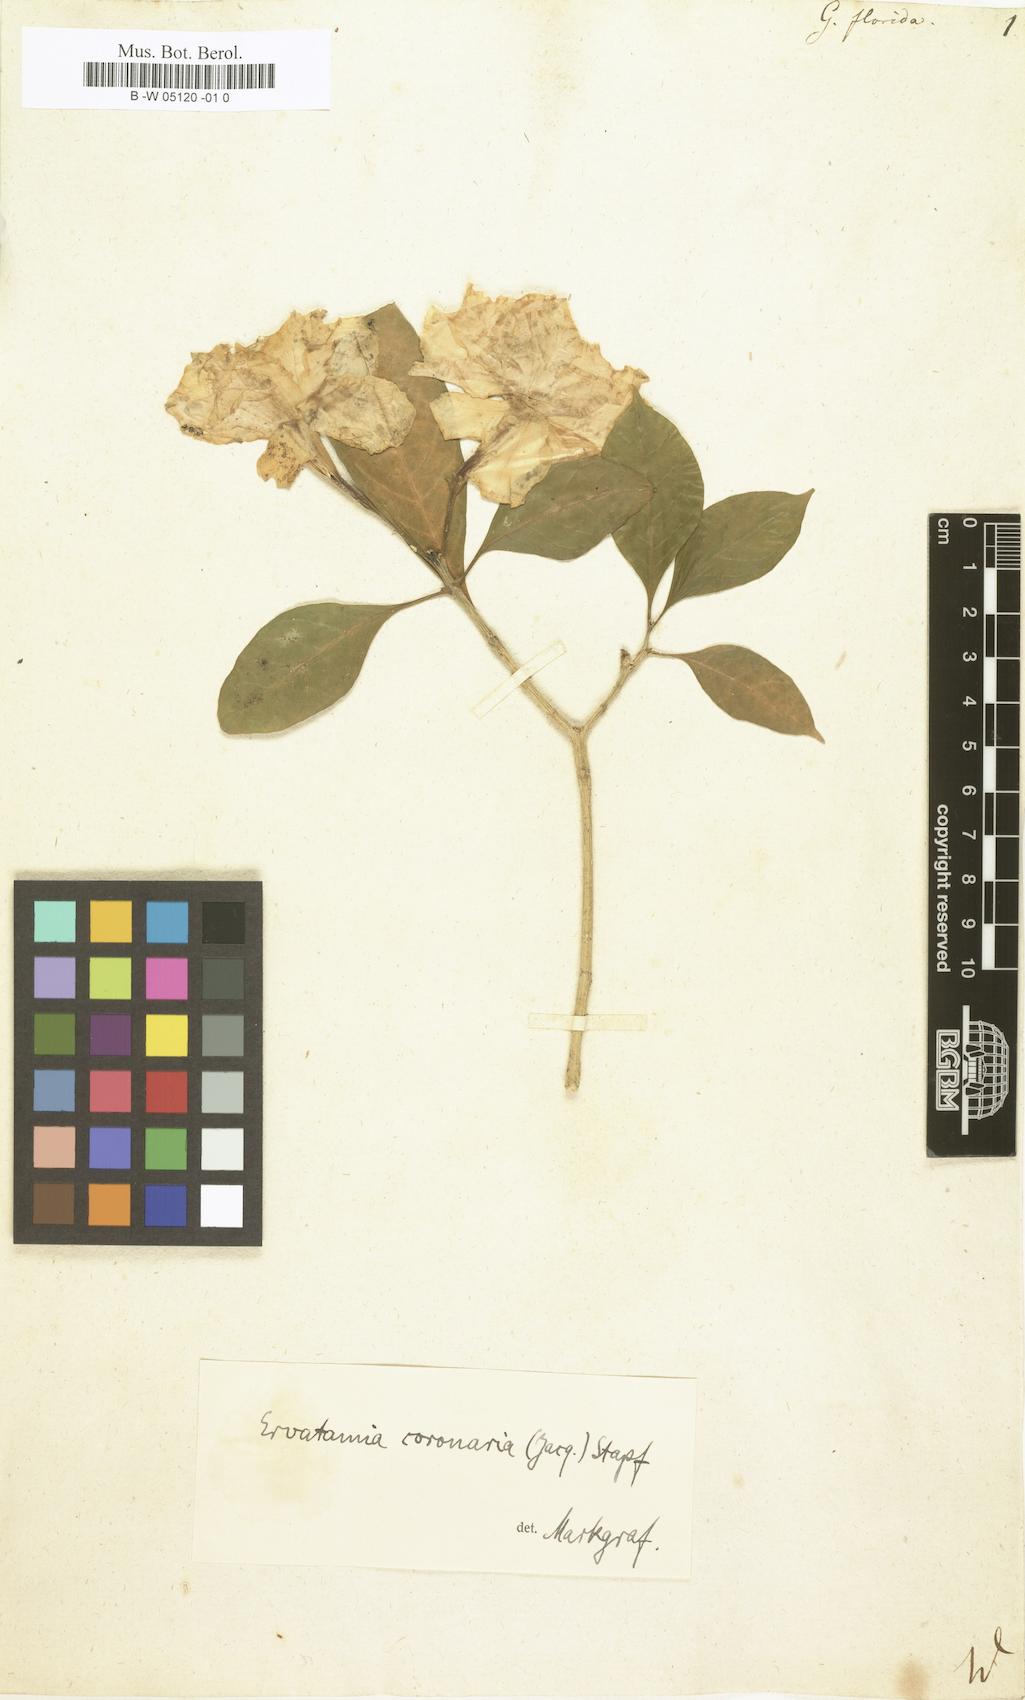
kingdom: Plantae
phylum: Tracheophyta
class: Magnoliopsida
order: Gentianales
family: Rubiaceae
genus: Gardenia
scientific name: Gardenia jasminoides
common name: Cape-jasmine
